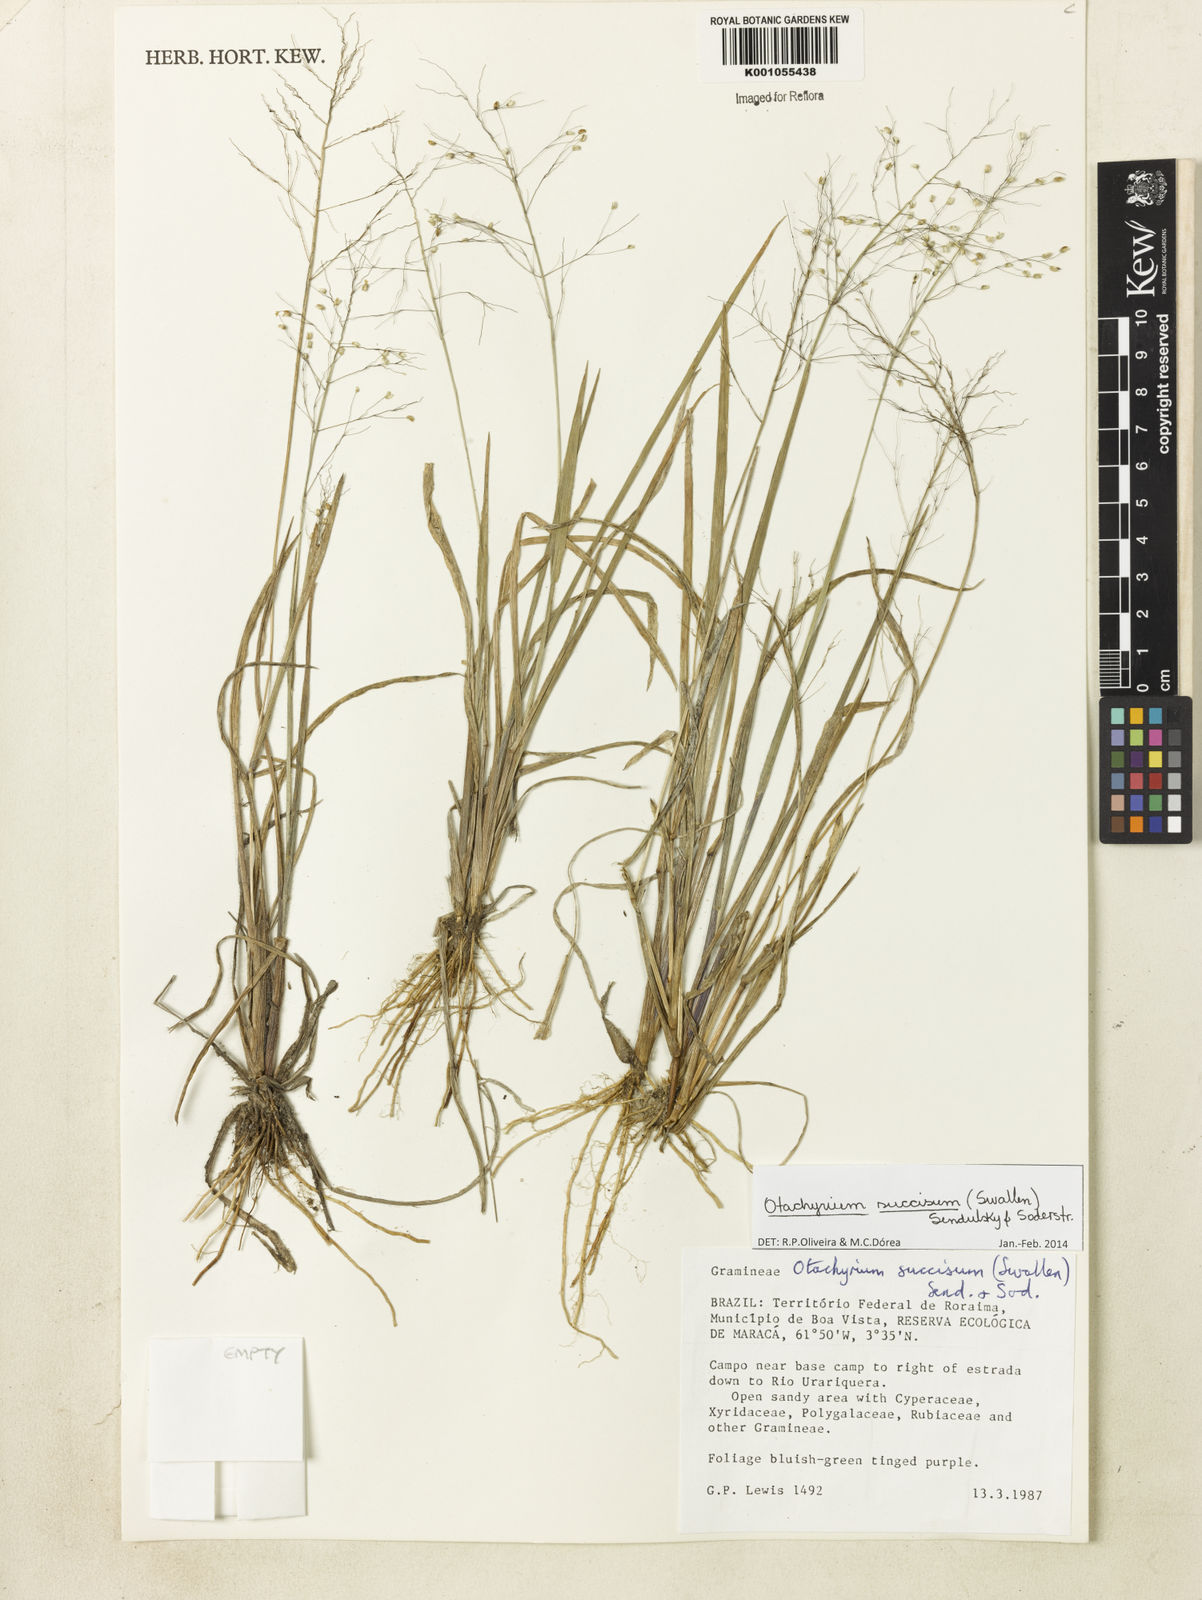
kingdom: Plantae
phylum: Tracheophyta
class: Liliopsida
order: Poales
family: Poaceae
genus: Otachyrium
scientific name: Otachyrium inaequale
